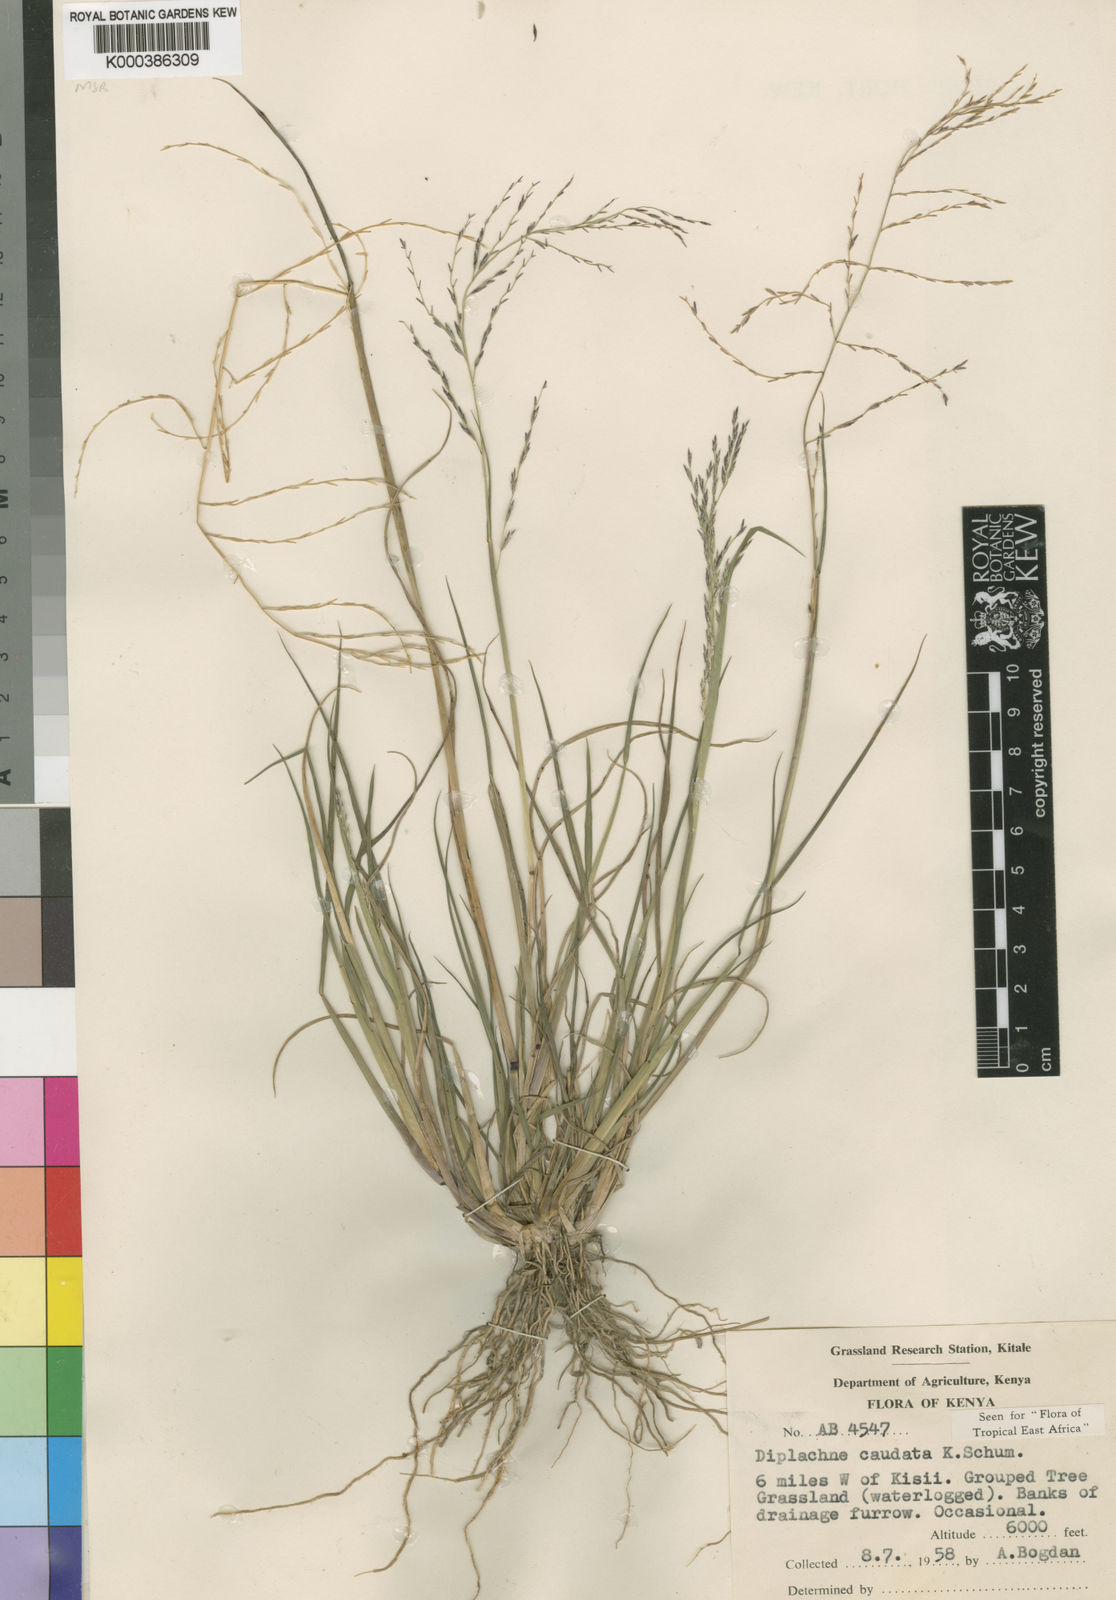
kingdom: Plantae
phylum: Tracheophyta
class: Liliopsida
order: Poales
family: Poaceae
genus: Leptochloa
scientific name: Leptochloa caudata
